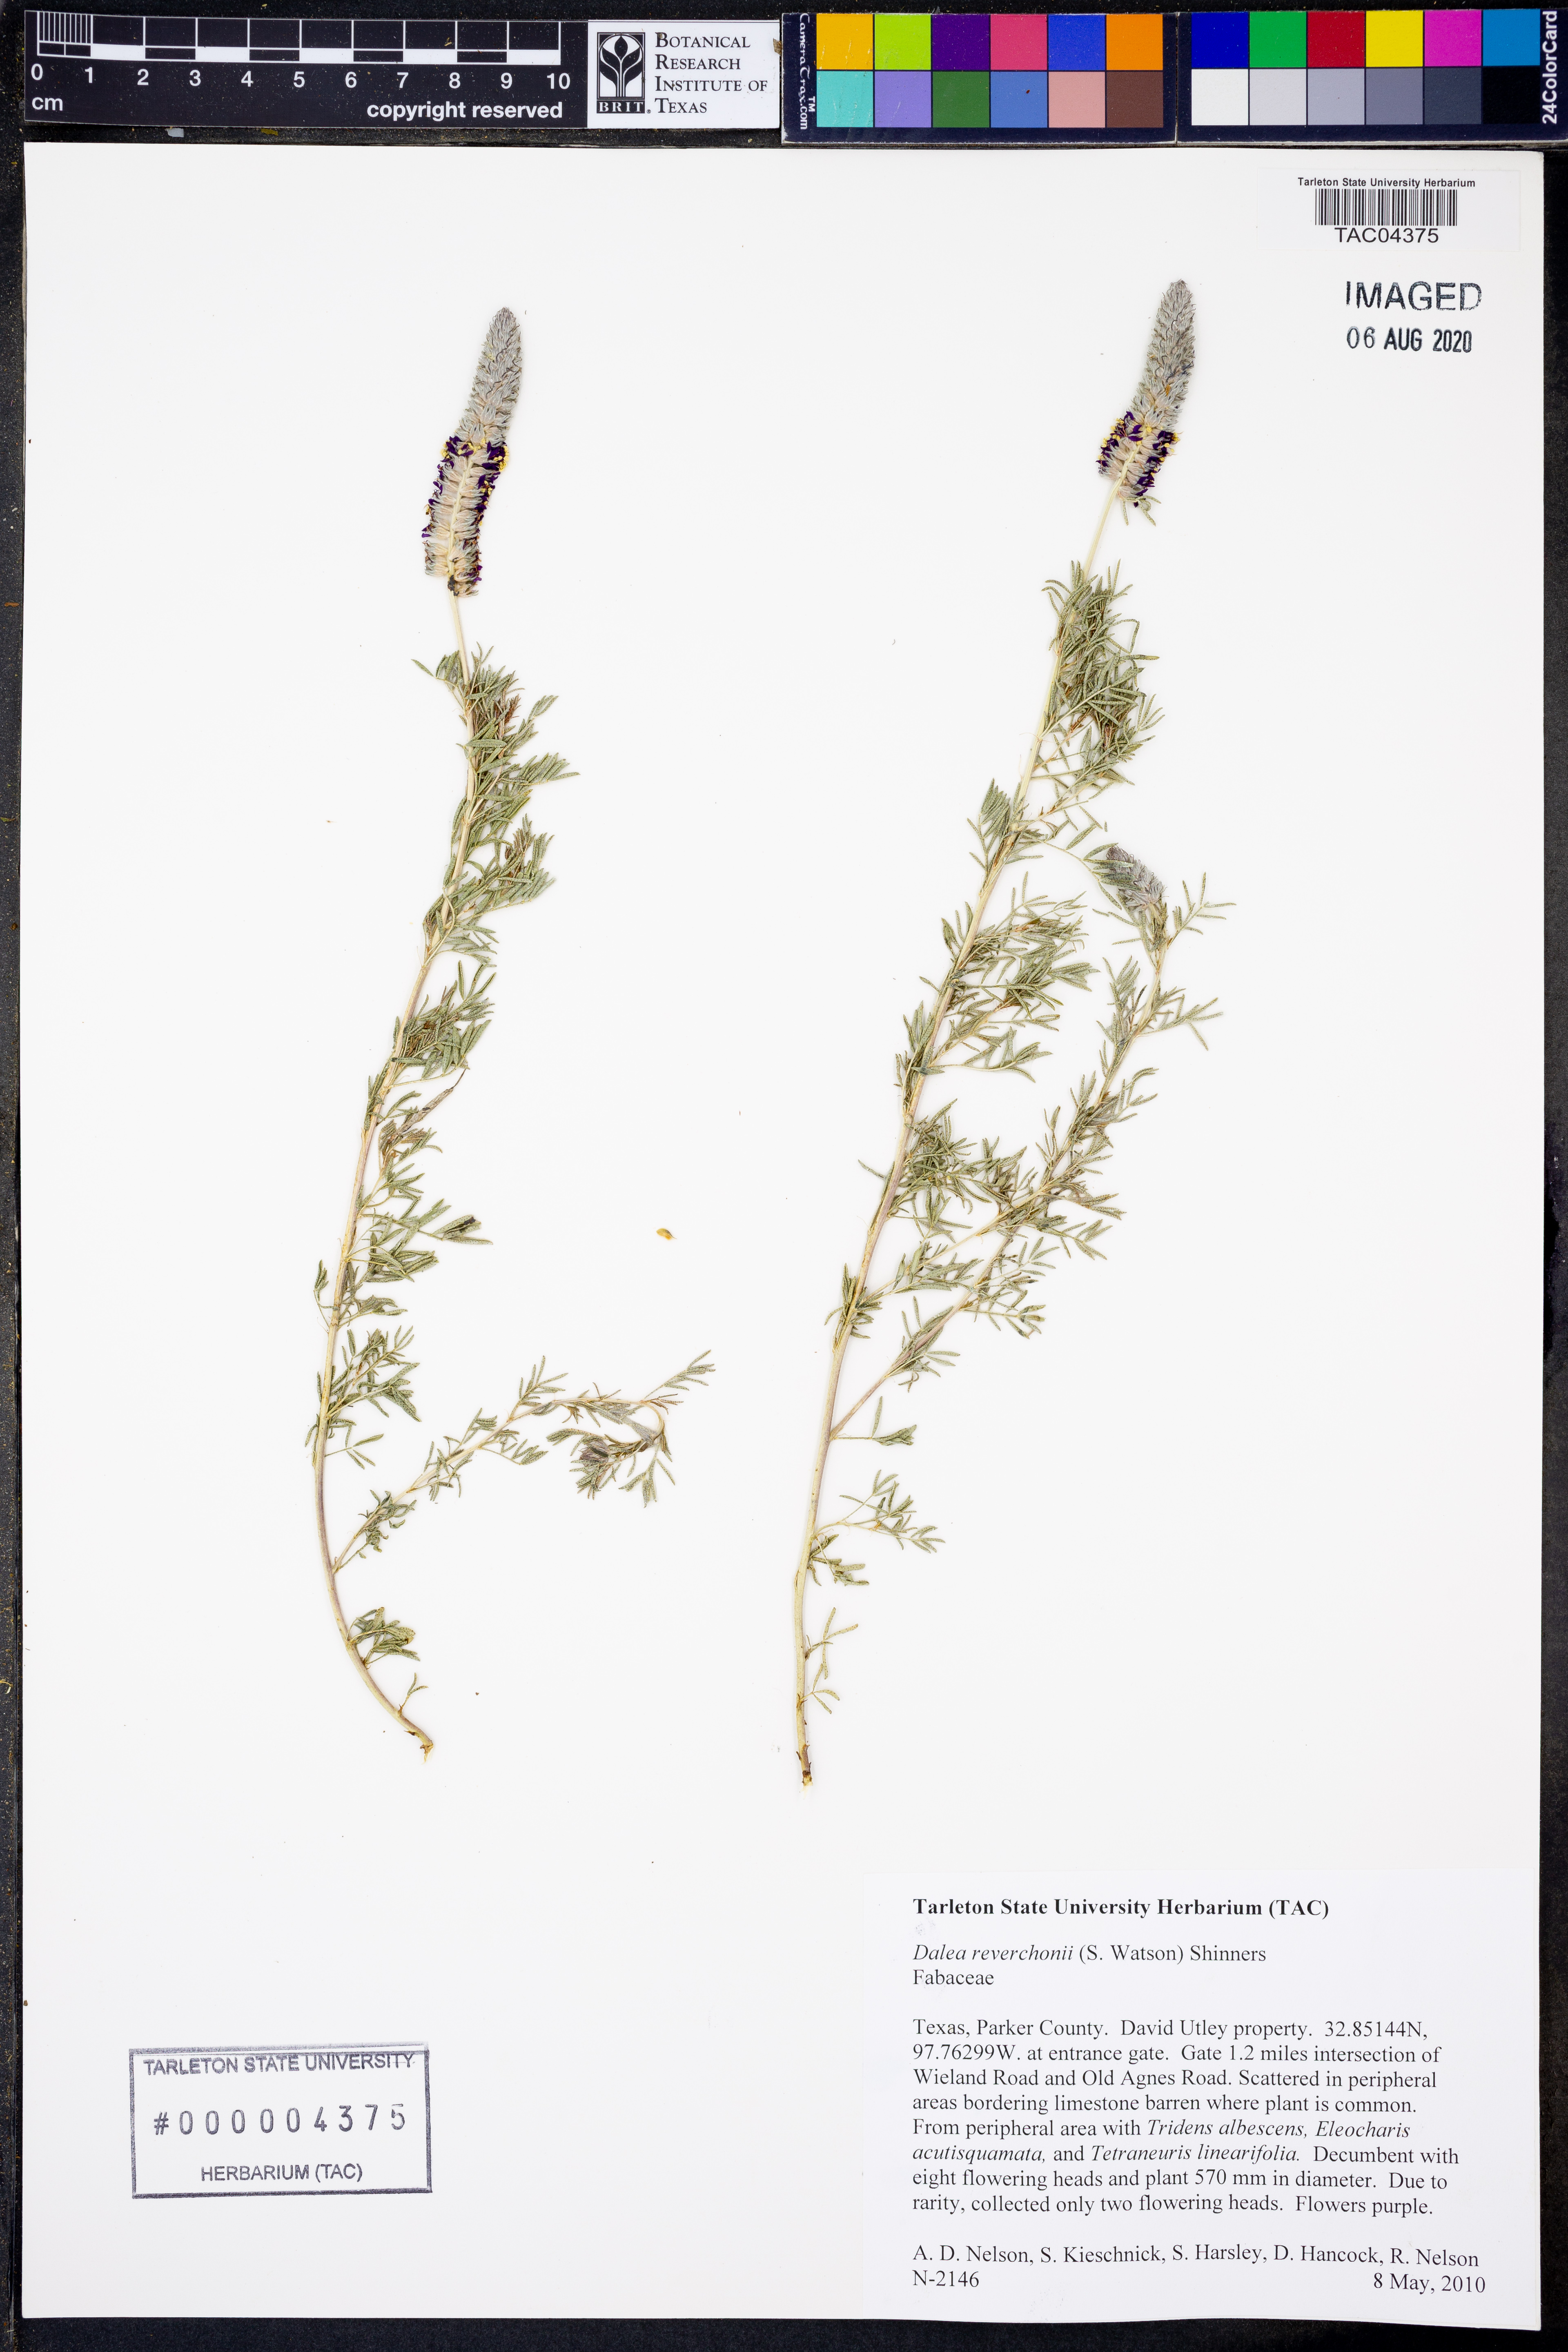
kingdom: Plantae
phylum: Tracheophyta
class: Magnoliopsida
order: Fabales
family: Fabaceae
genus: Dalea
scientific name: Dalea reverchonii
